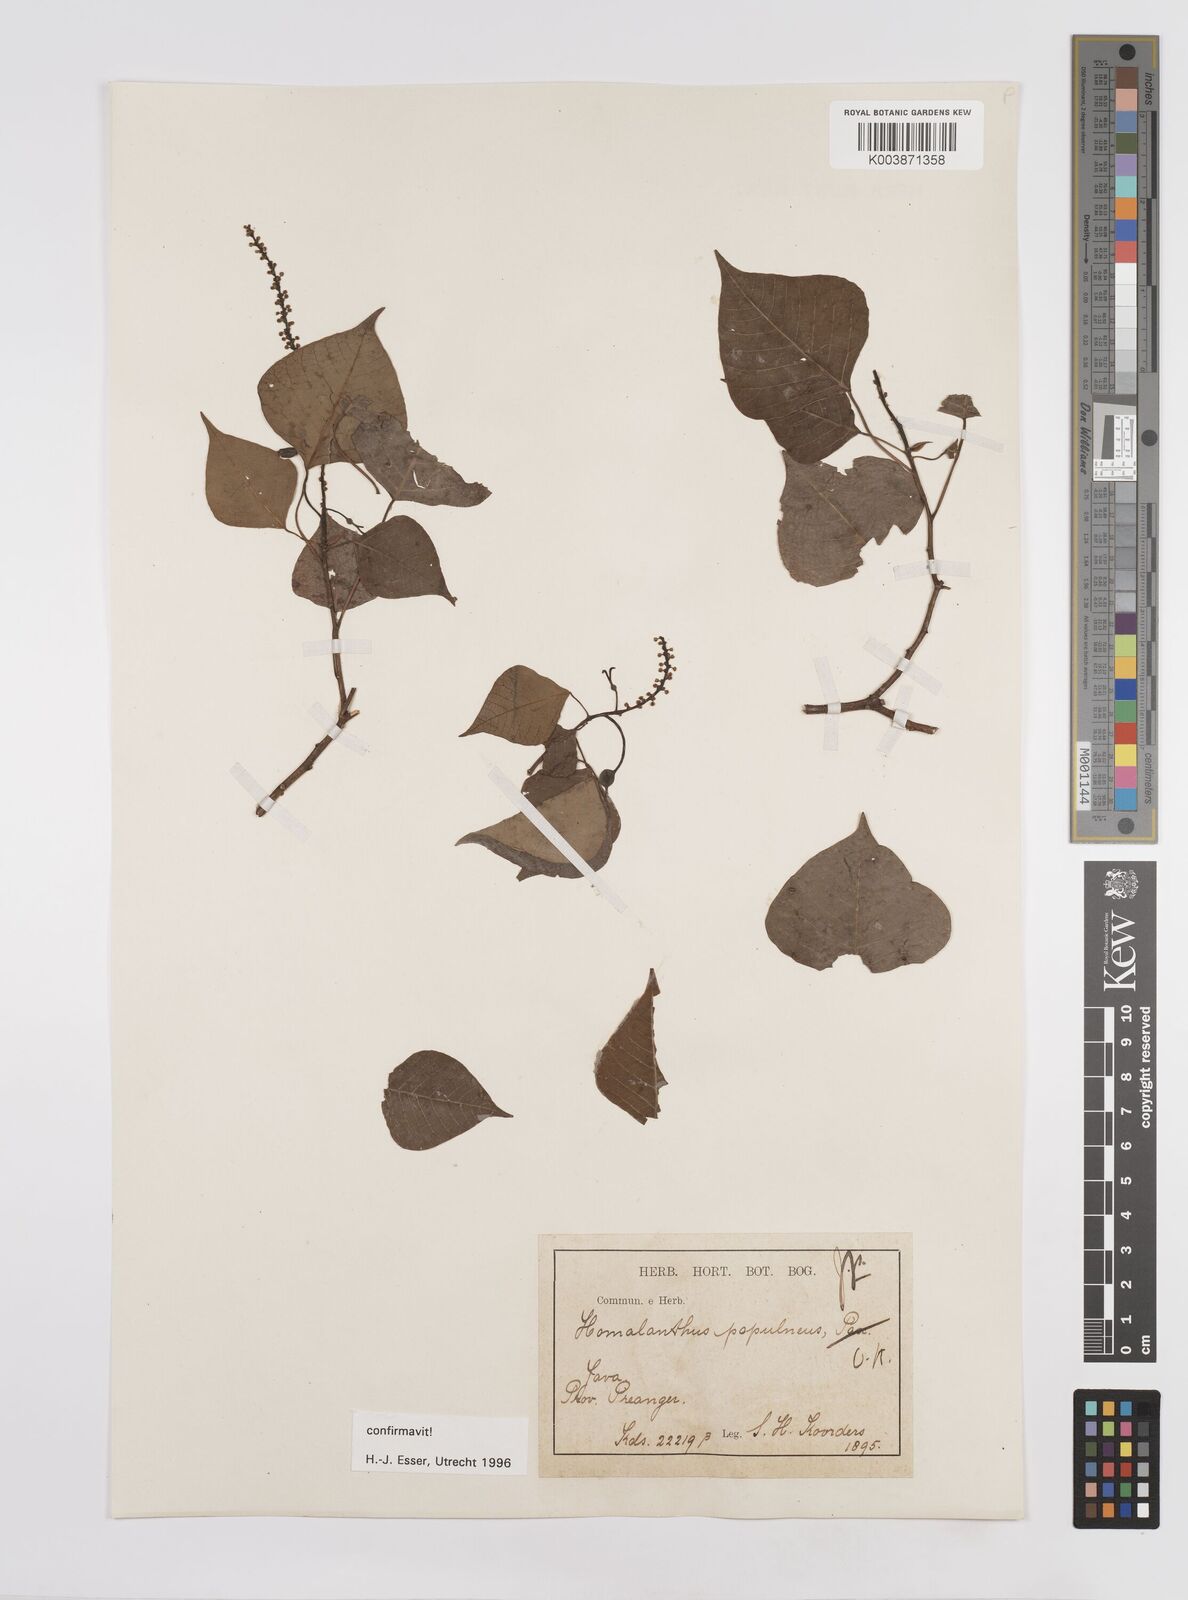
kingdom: Plantae
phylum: Tracheophyta
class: Magnoliopsida
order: Malpighiales
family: Euphorbiaceae
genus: Homalanthus
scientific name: Homalanthus populneus
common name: Spurge
